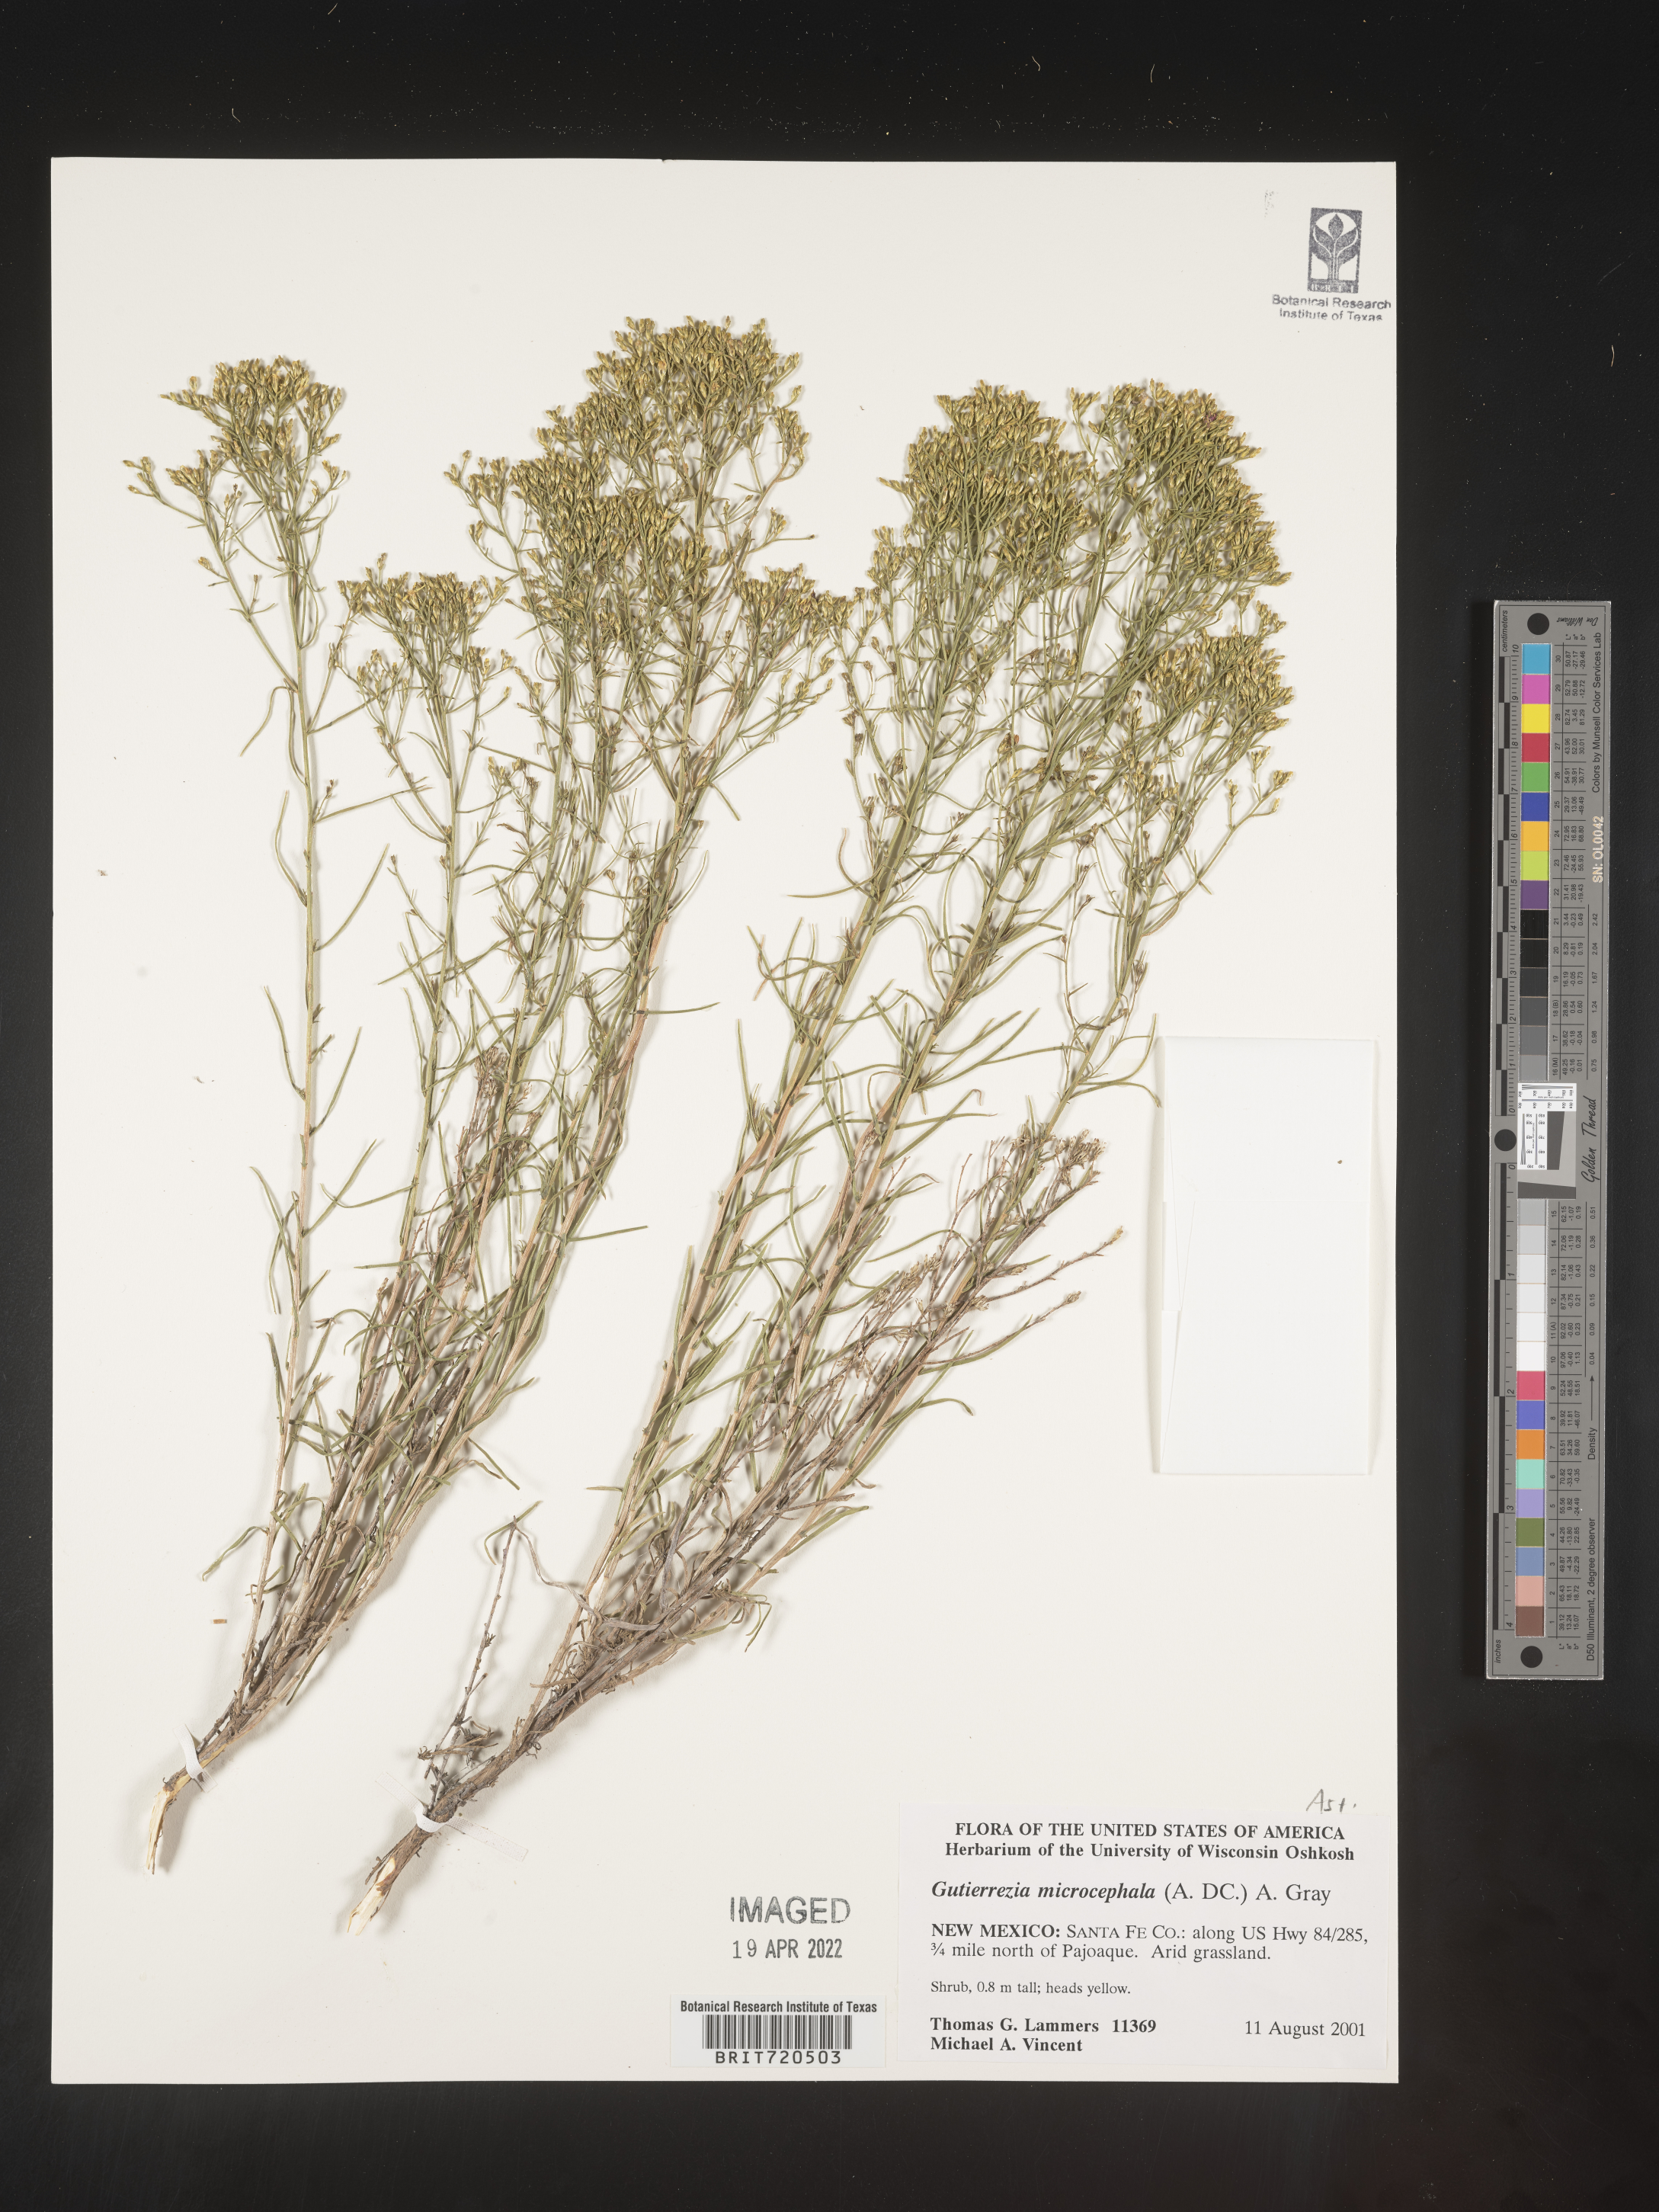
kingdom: Plantae
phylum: Tracheophyta
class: Magnoliopsida
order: Asterales
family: Asteraceae
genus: Gutierrezia
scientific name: Gutierrezia microcephala
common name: Thread snakeweed
